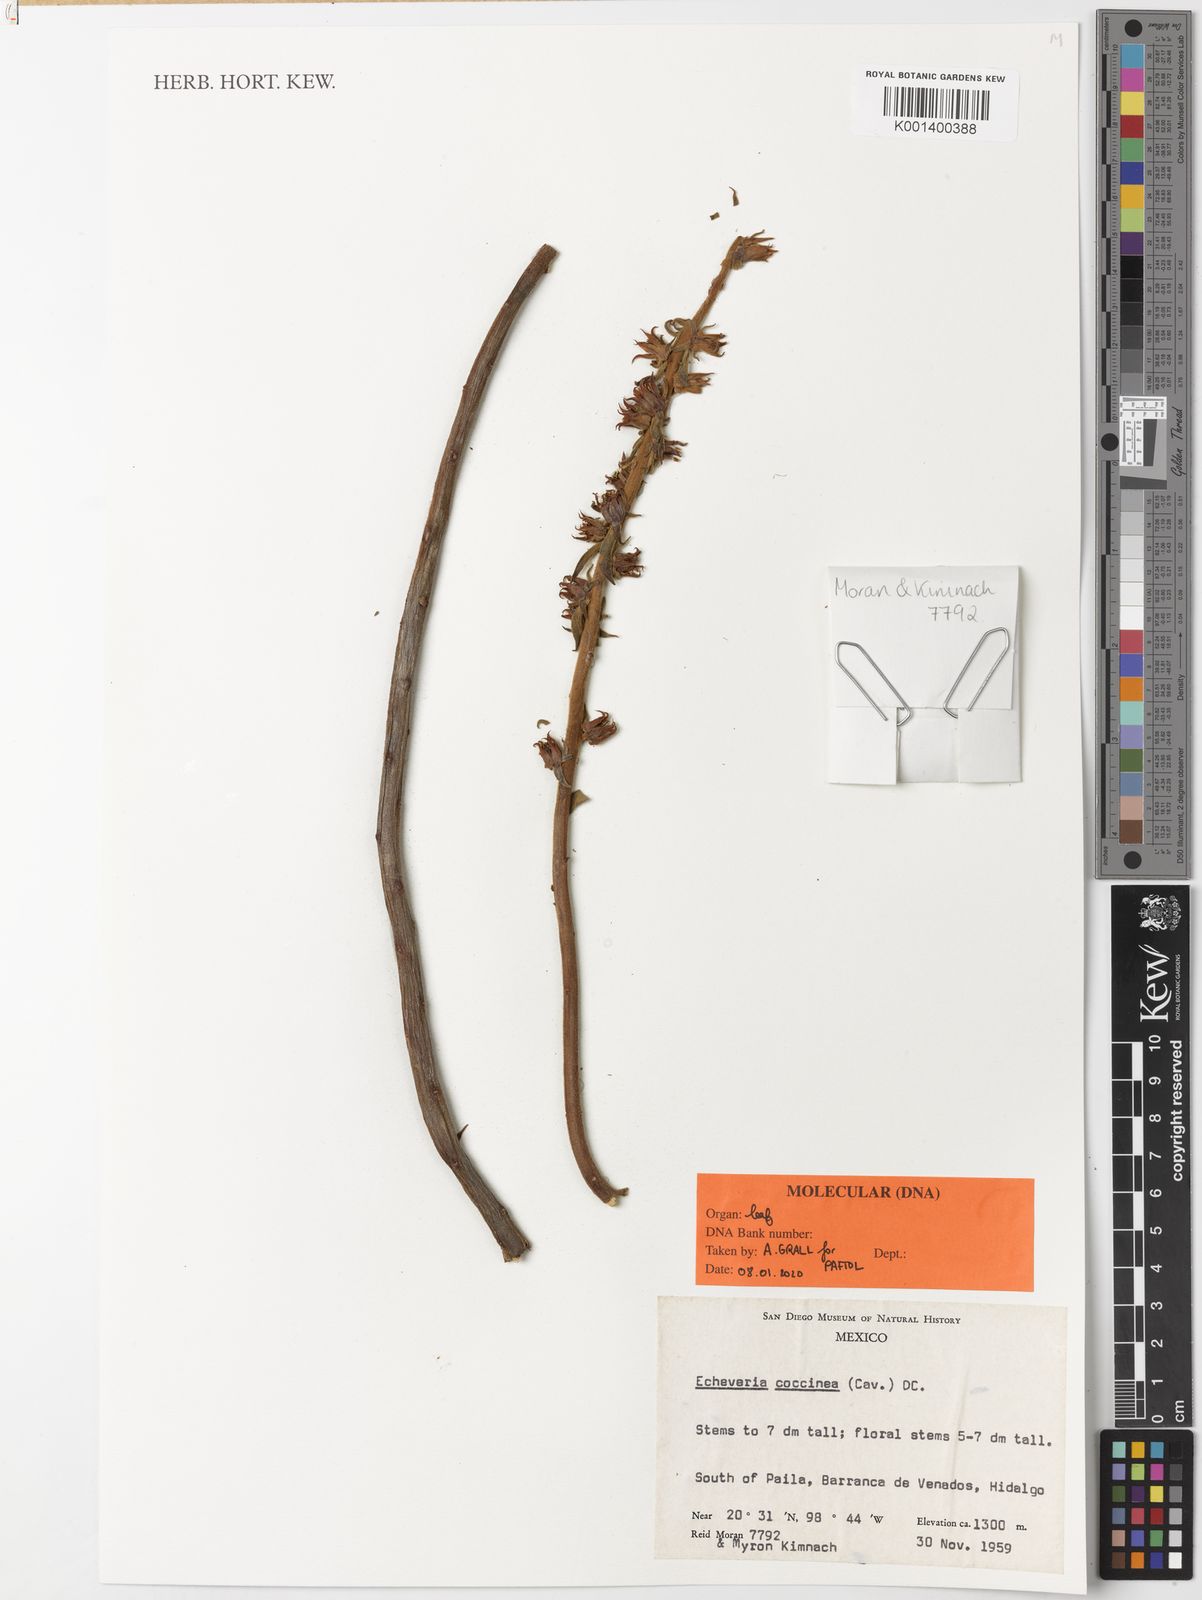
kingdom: Plantae
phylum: Tracheophyta
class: Magnoliopsida
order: Saxifragales
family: Crassulaceae
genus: Echeveria
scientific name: Echeveria coccinea
